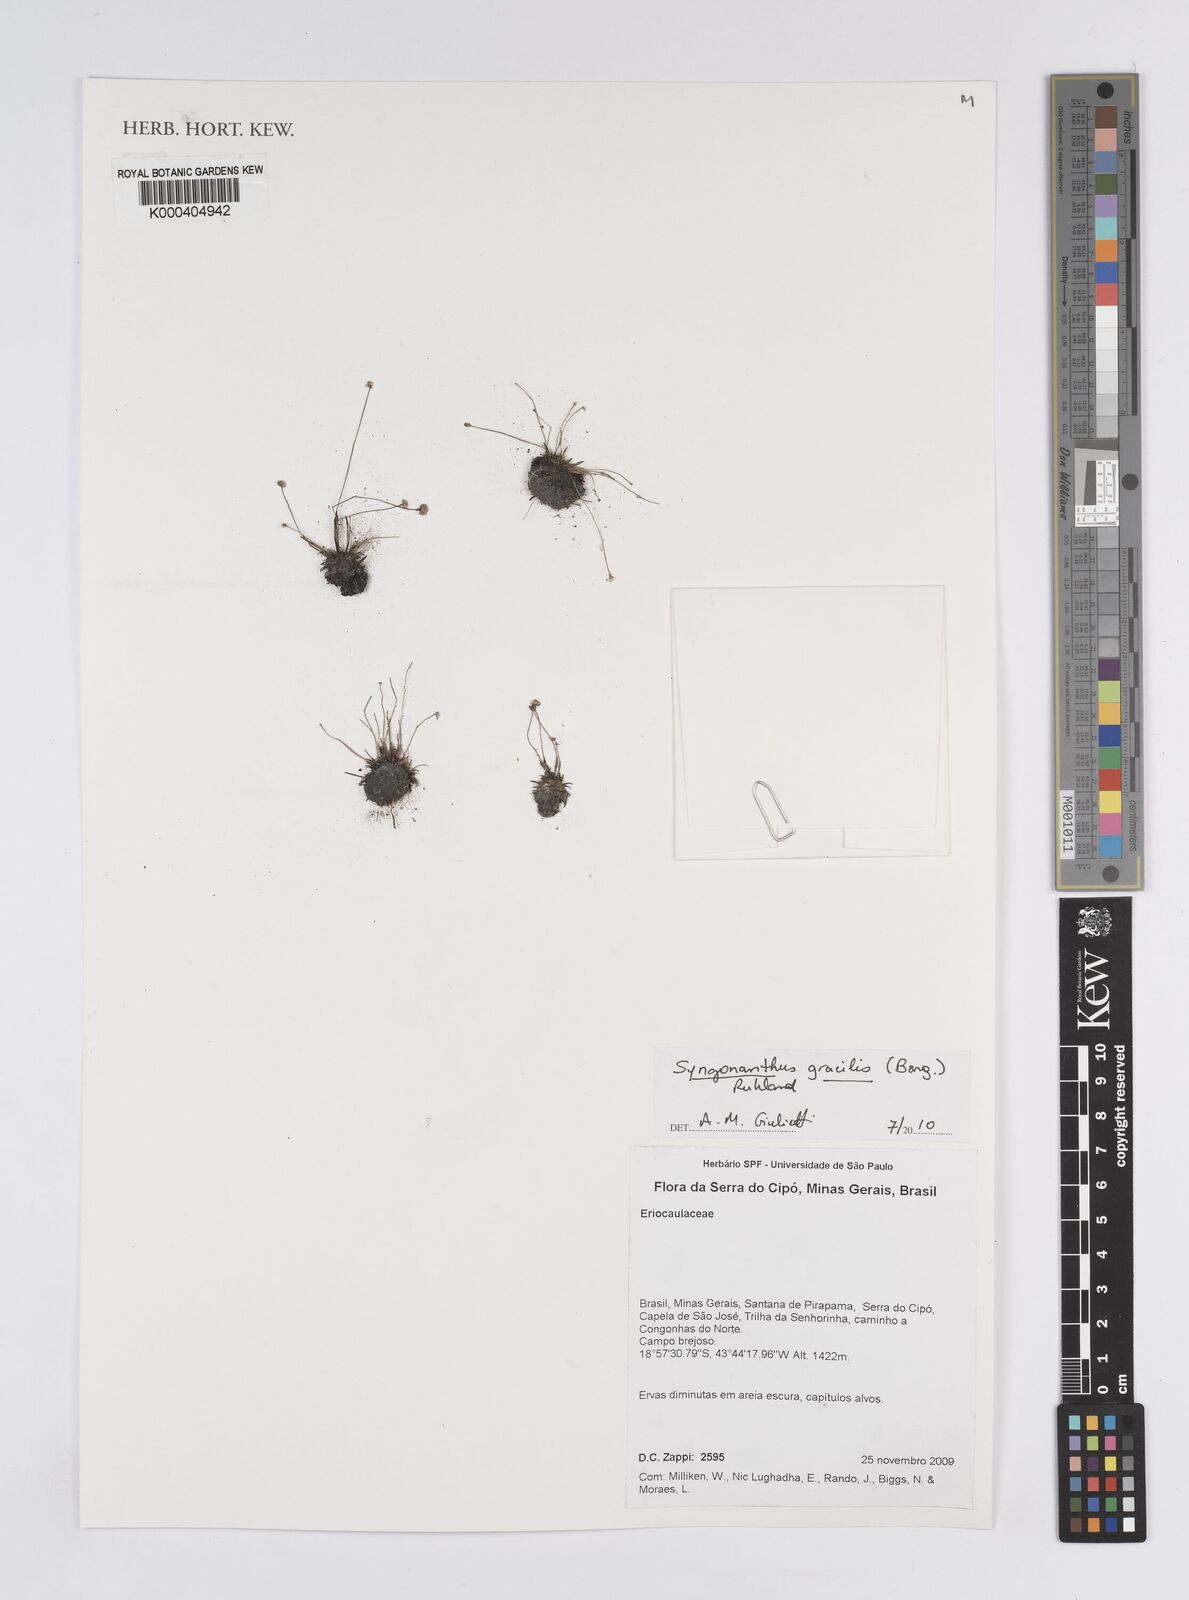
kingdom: Plantae
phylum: Tracheophyta
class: Liliopsida
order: Poales
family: Eriocaulaceae
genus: Syngonanthus
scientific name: Syngonanthus gracilis
